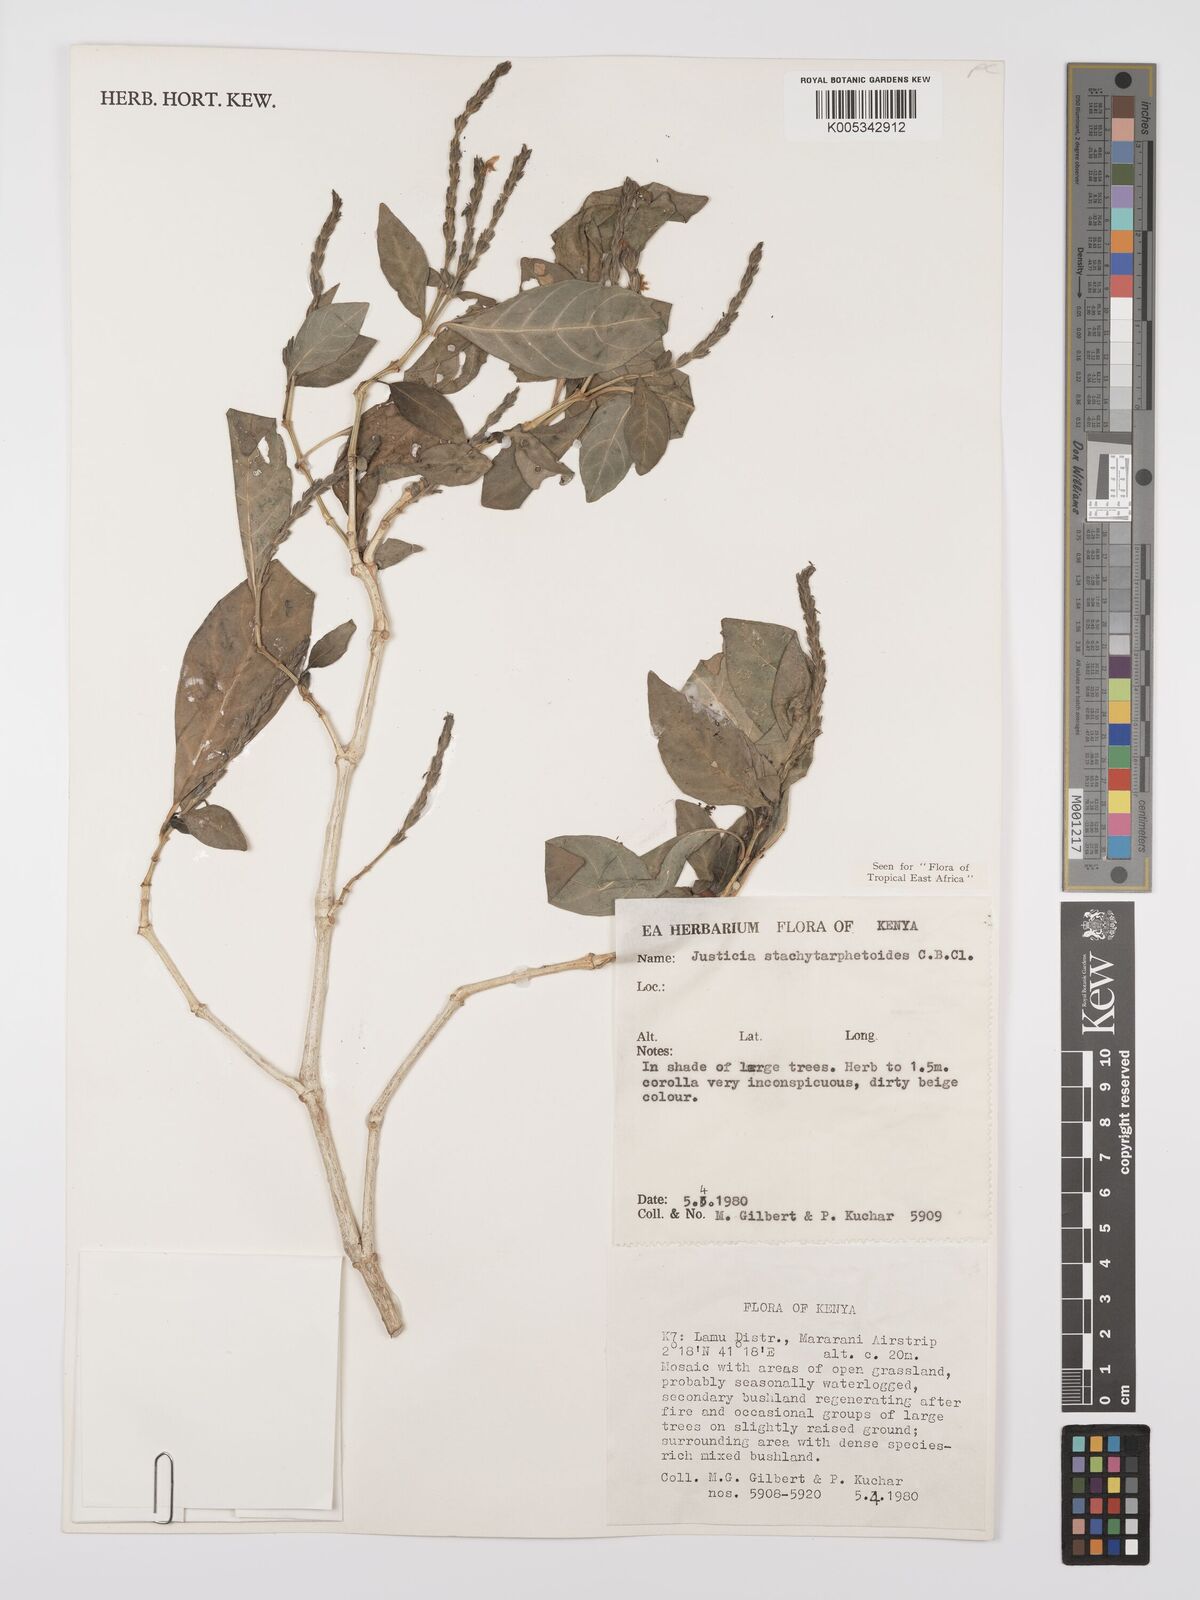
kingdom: Plantae
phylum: Tracheophyta
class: Magnoliopsida
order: Lamiales
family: Acanthaceae
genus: Justicia
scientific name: Justicia stachytarphetoides
